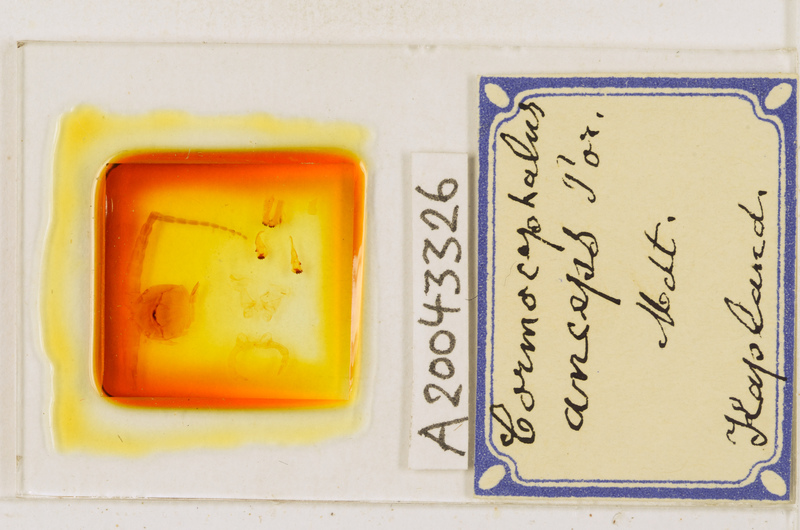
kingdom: Animalia
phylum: Arthropoda
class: Chilopoda
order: Scolopendromorpha
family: Scolopendridae
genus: Cormocephalus
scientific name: Cormocephalus anceps
